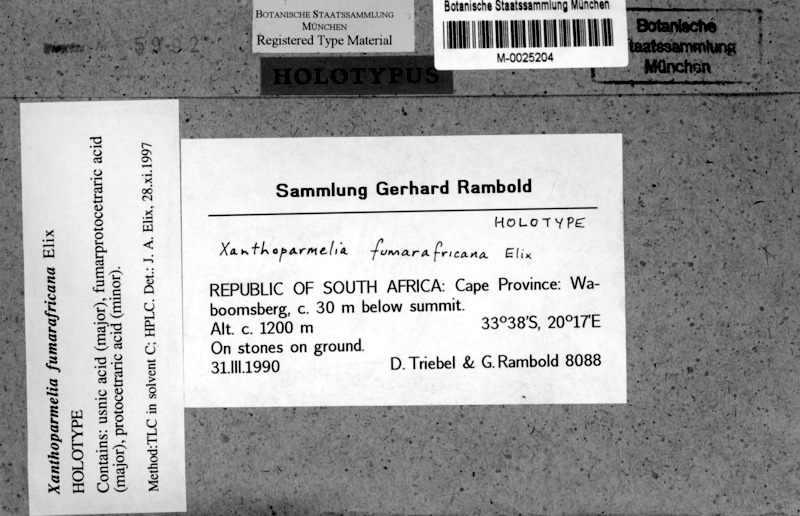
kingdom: Fungi
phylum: Ascomycota
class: Lecanoromycetes
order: Lecanorales
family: Parmeliaceae
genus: Xanthoparmelia
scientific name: Xanthoparmelia
